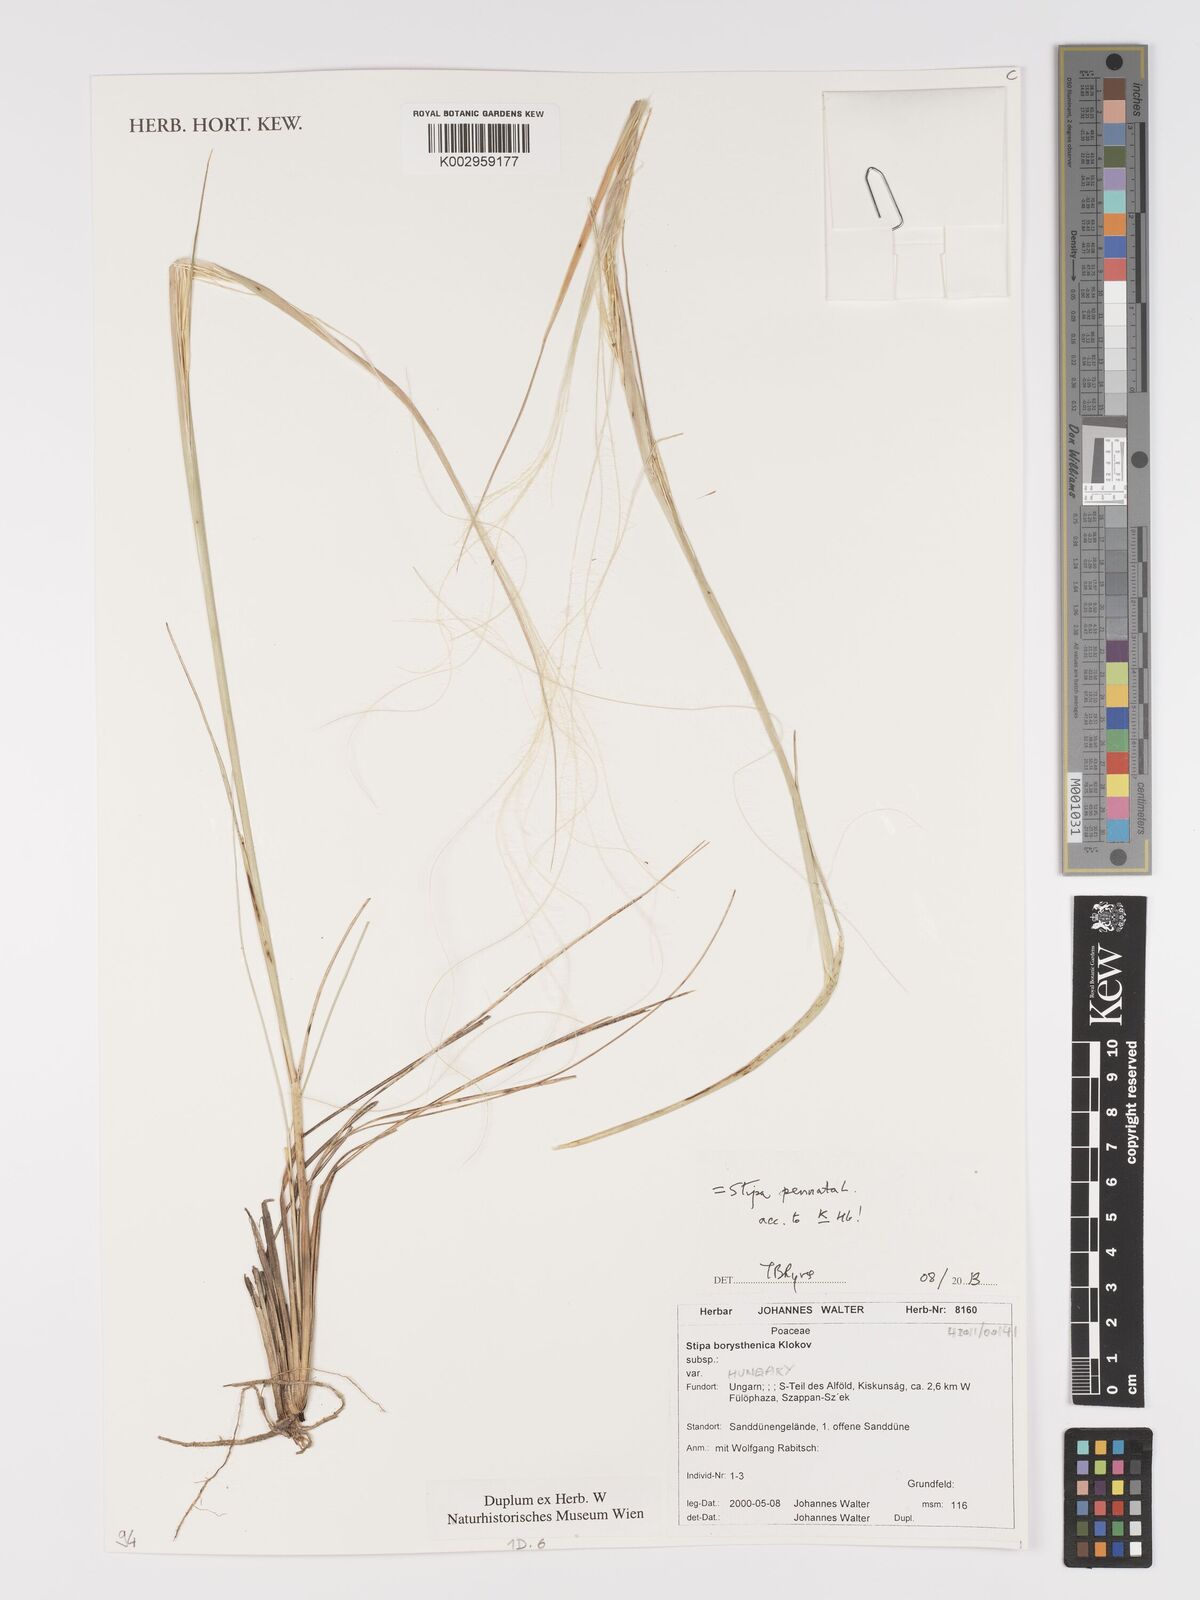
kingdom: Plantae
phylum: Tracheophyta
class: Liliopsida
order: Poales
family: Poaceae
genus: Stipa
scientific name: Stipa pennata
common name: European feather grass
